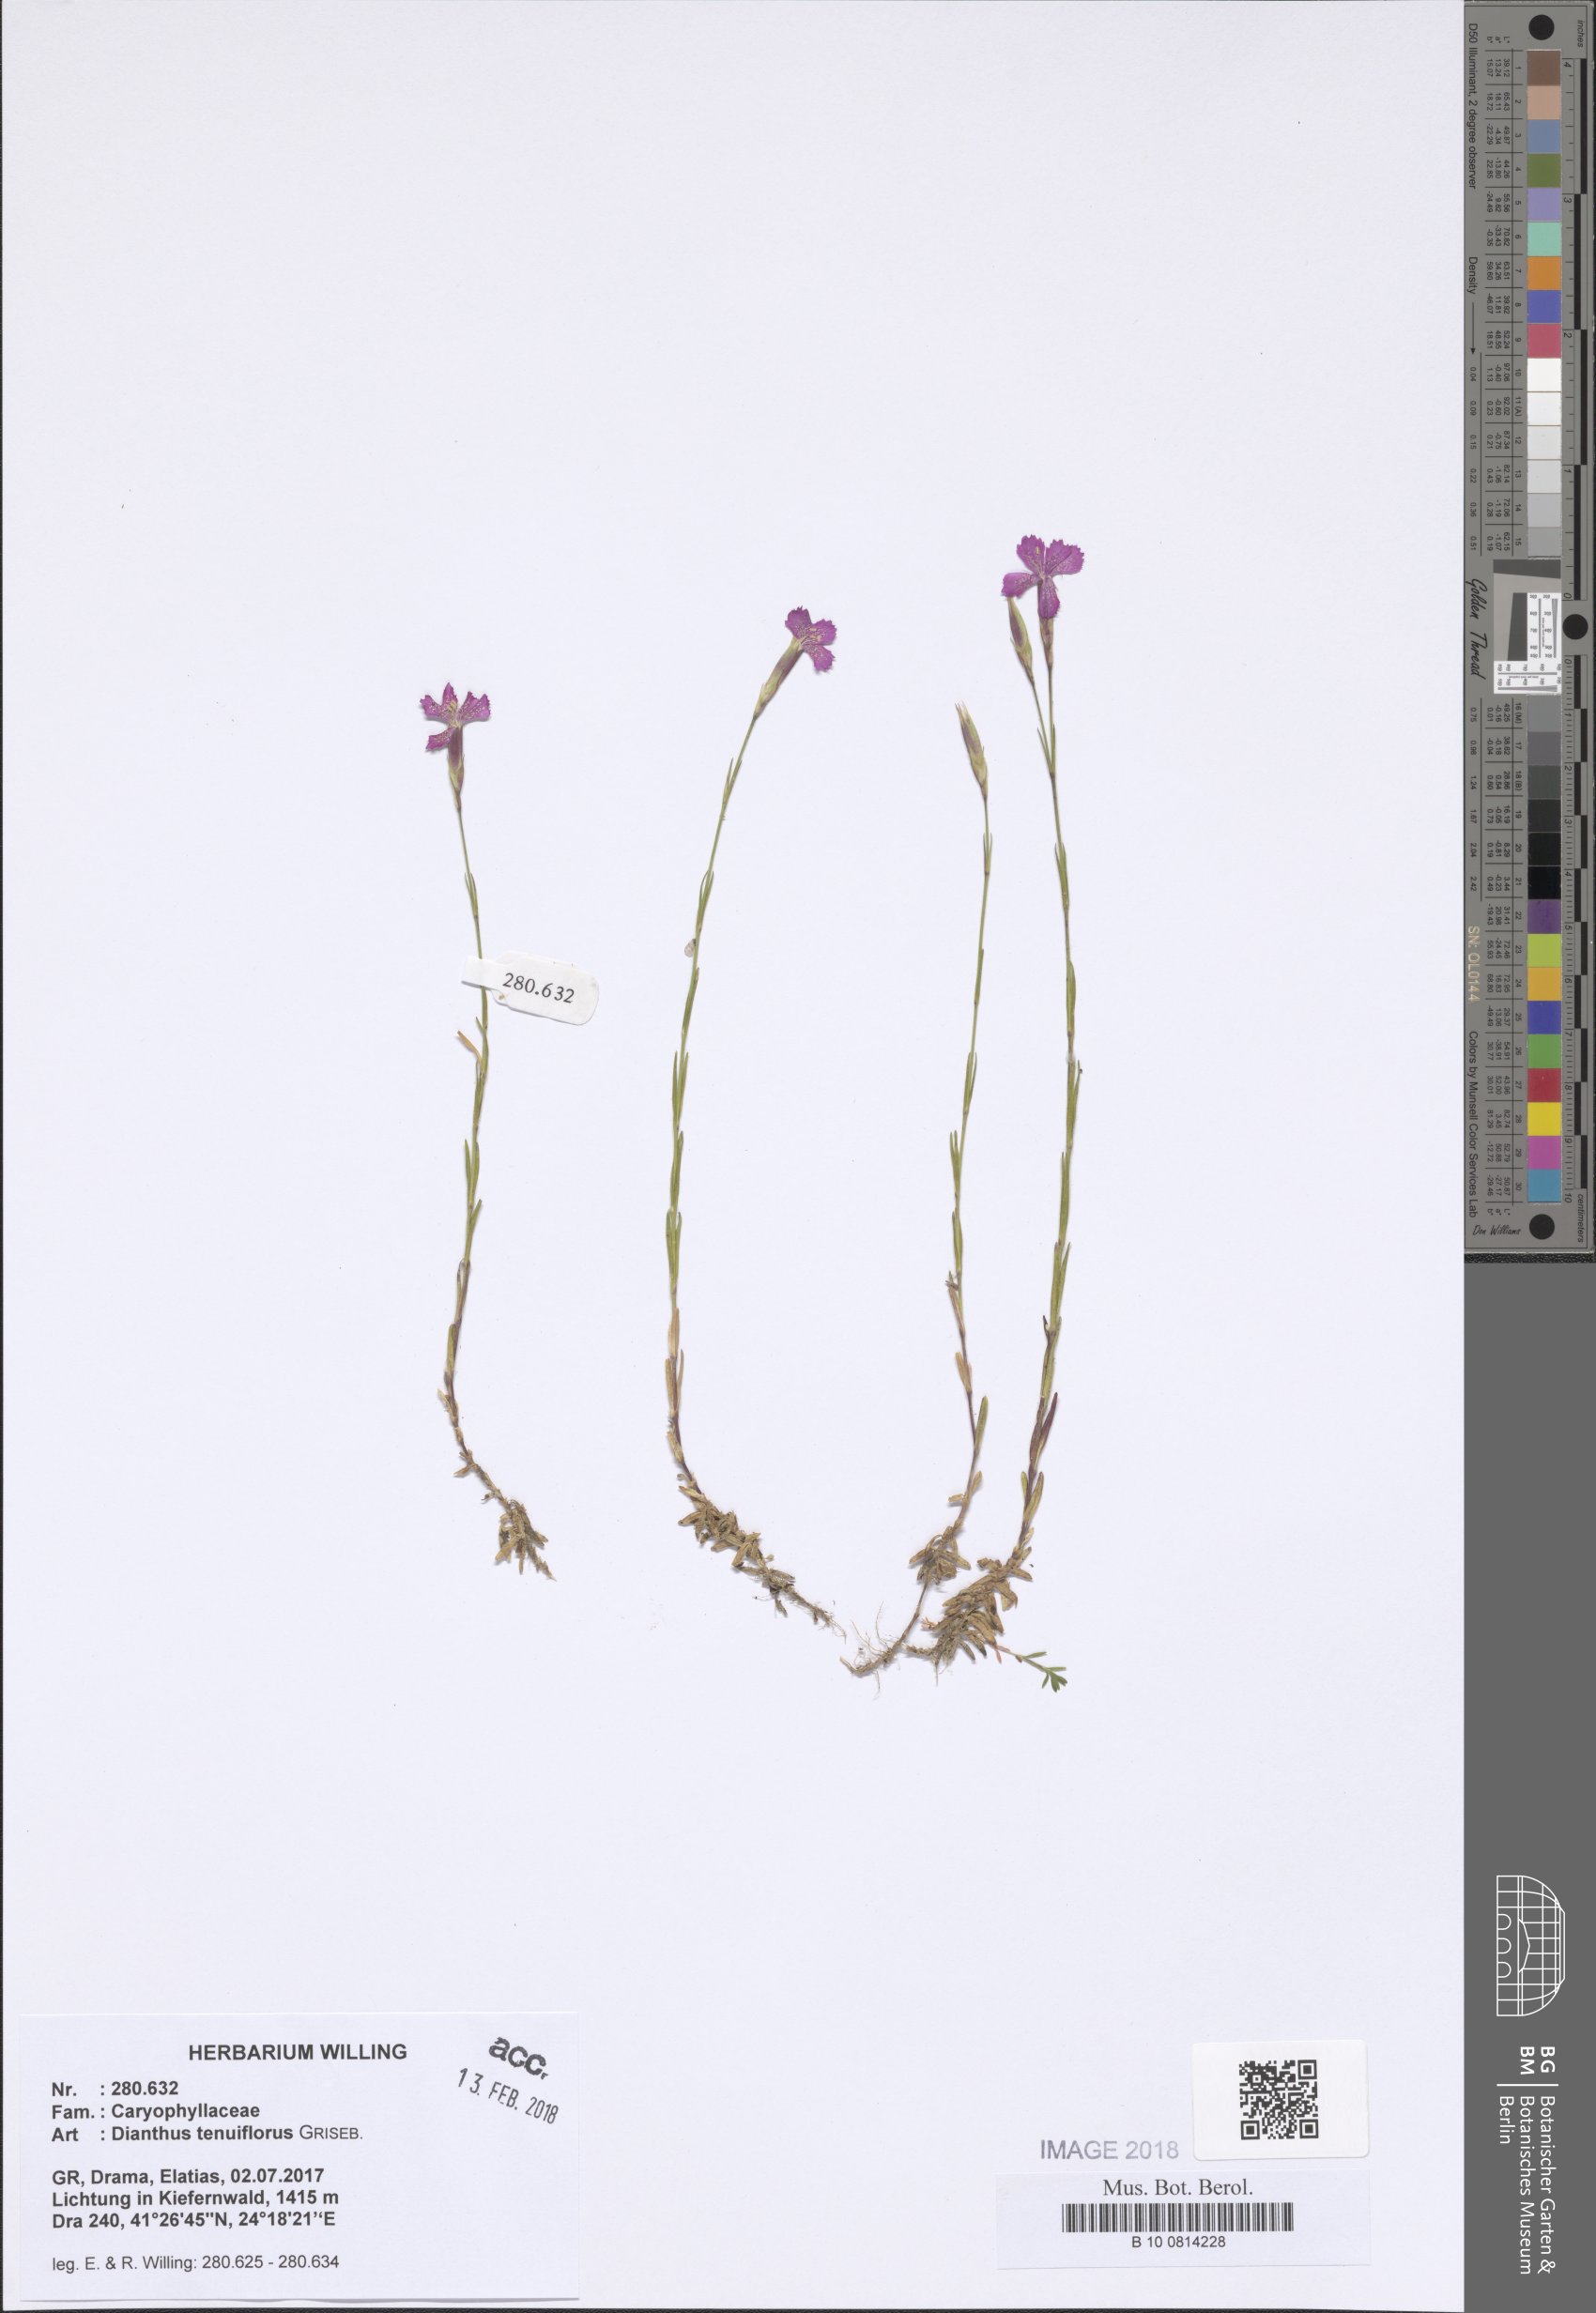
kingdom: Plantae
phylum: Tracheophyta
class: Magnoliopsida
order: Caryophyllales
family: Caryophyllaceae
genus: Dianthus
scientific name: Dianthus deltoides
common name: Maiden pink
